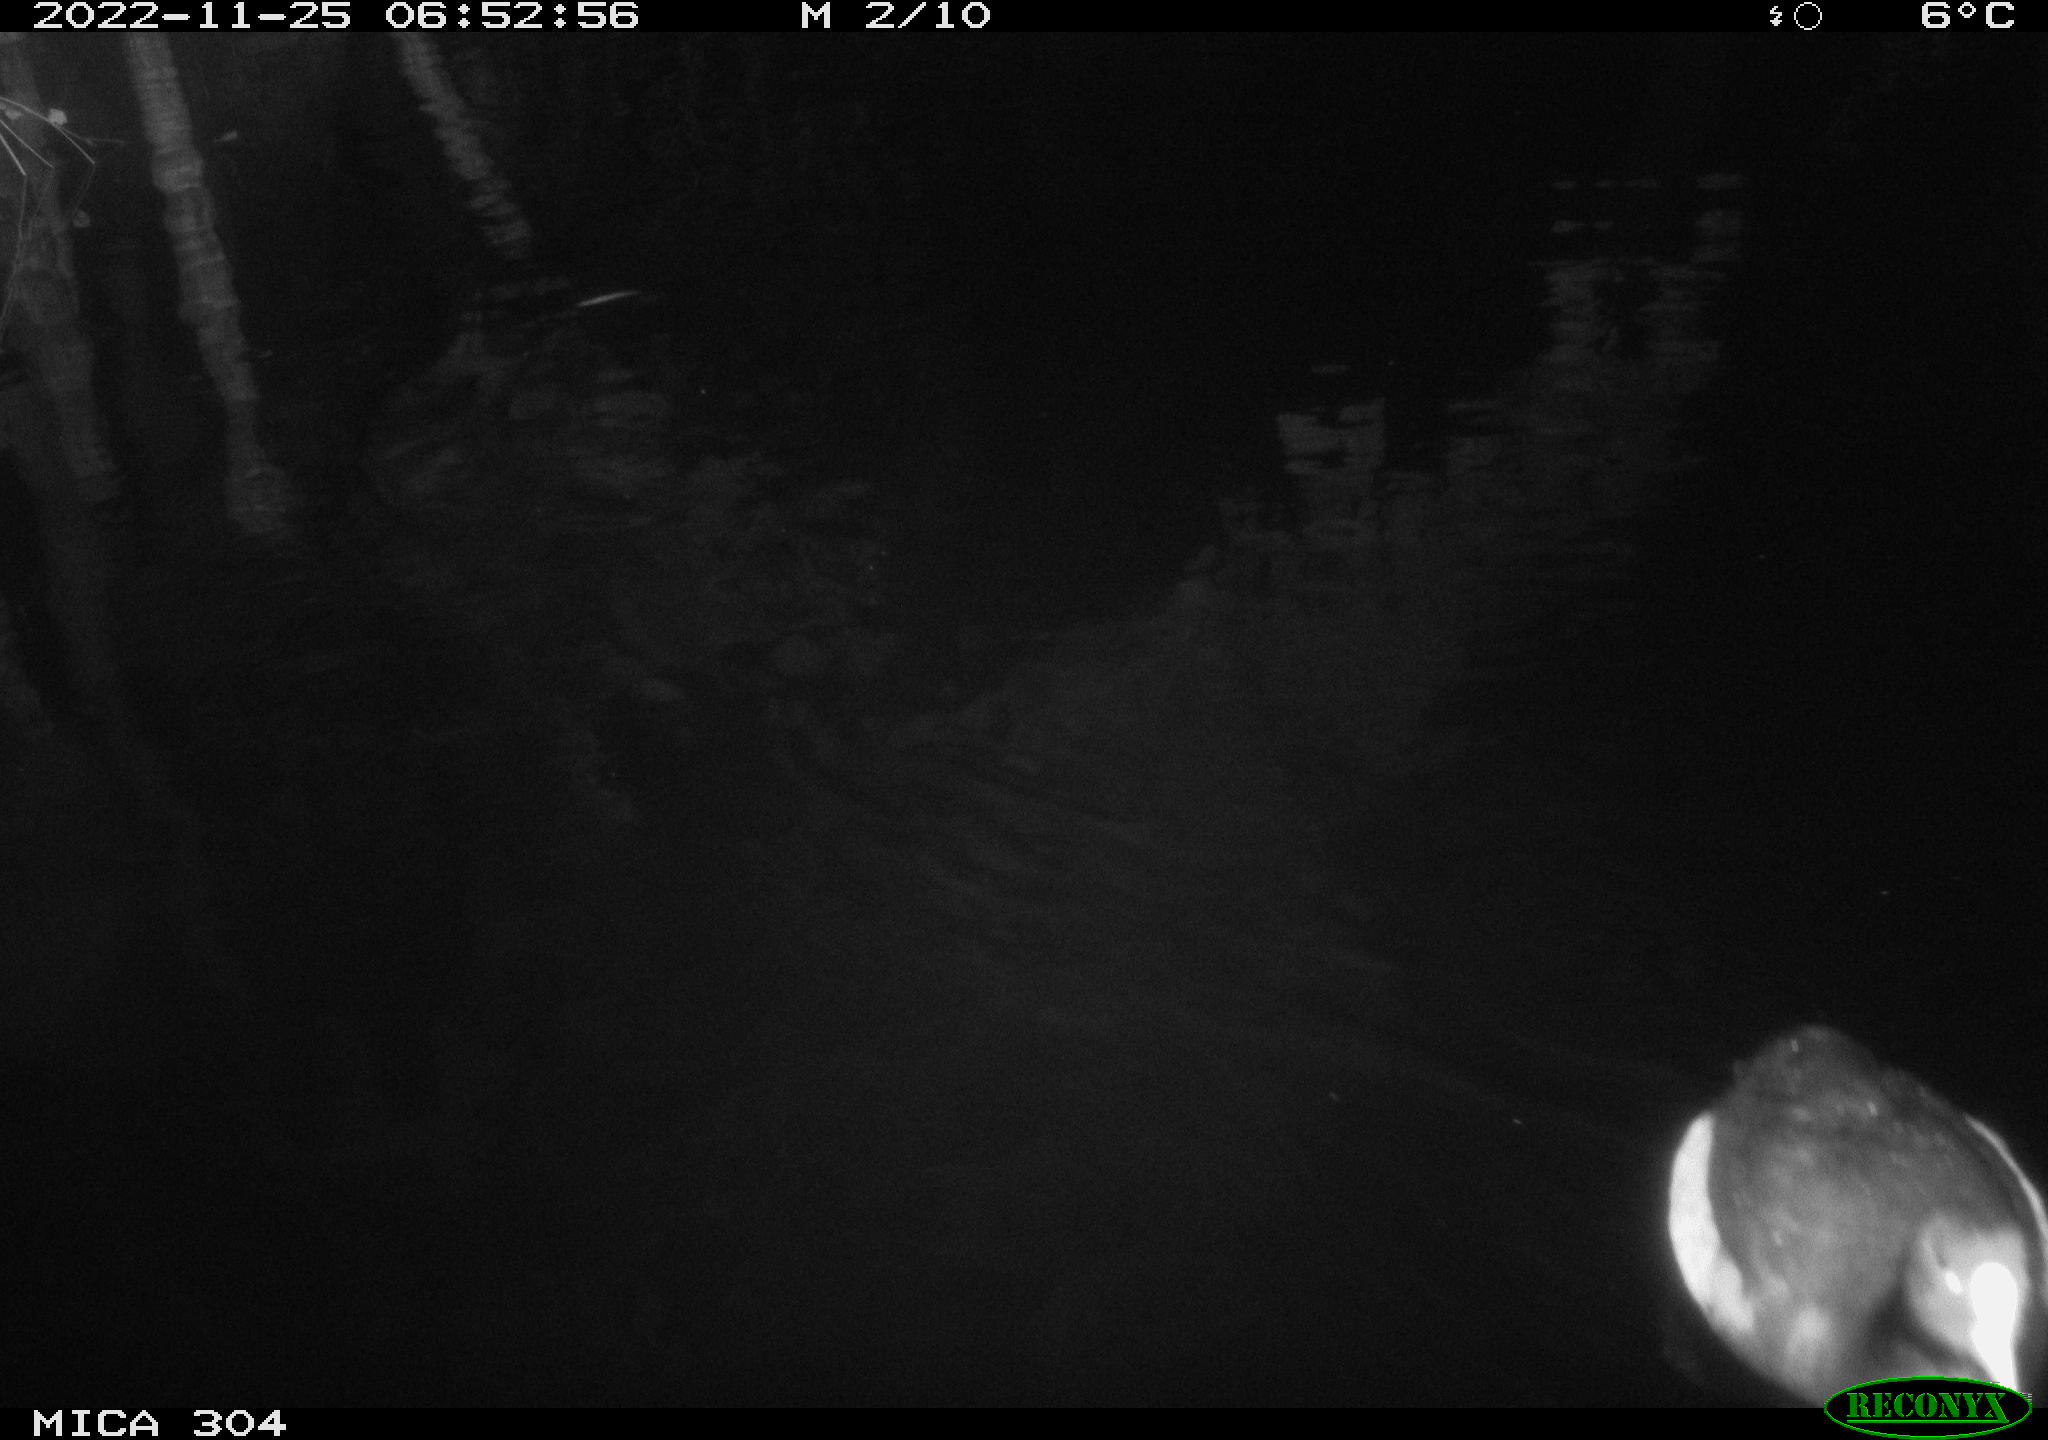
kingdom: Animalia
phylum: Chordata
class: Aves
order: Anseriformes
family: Anatidae
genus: Anas
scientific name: Anas
